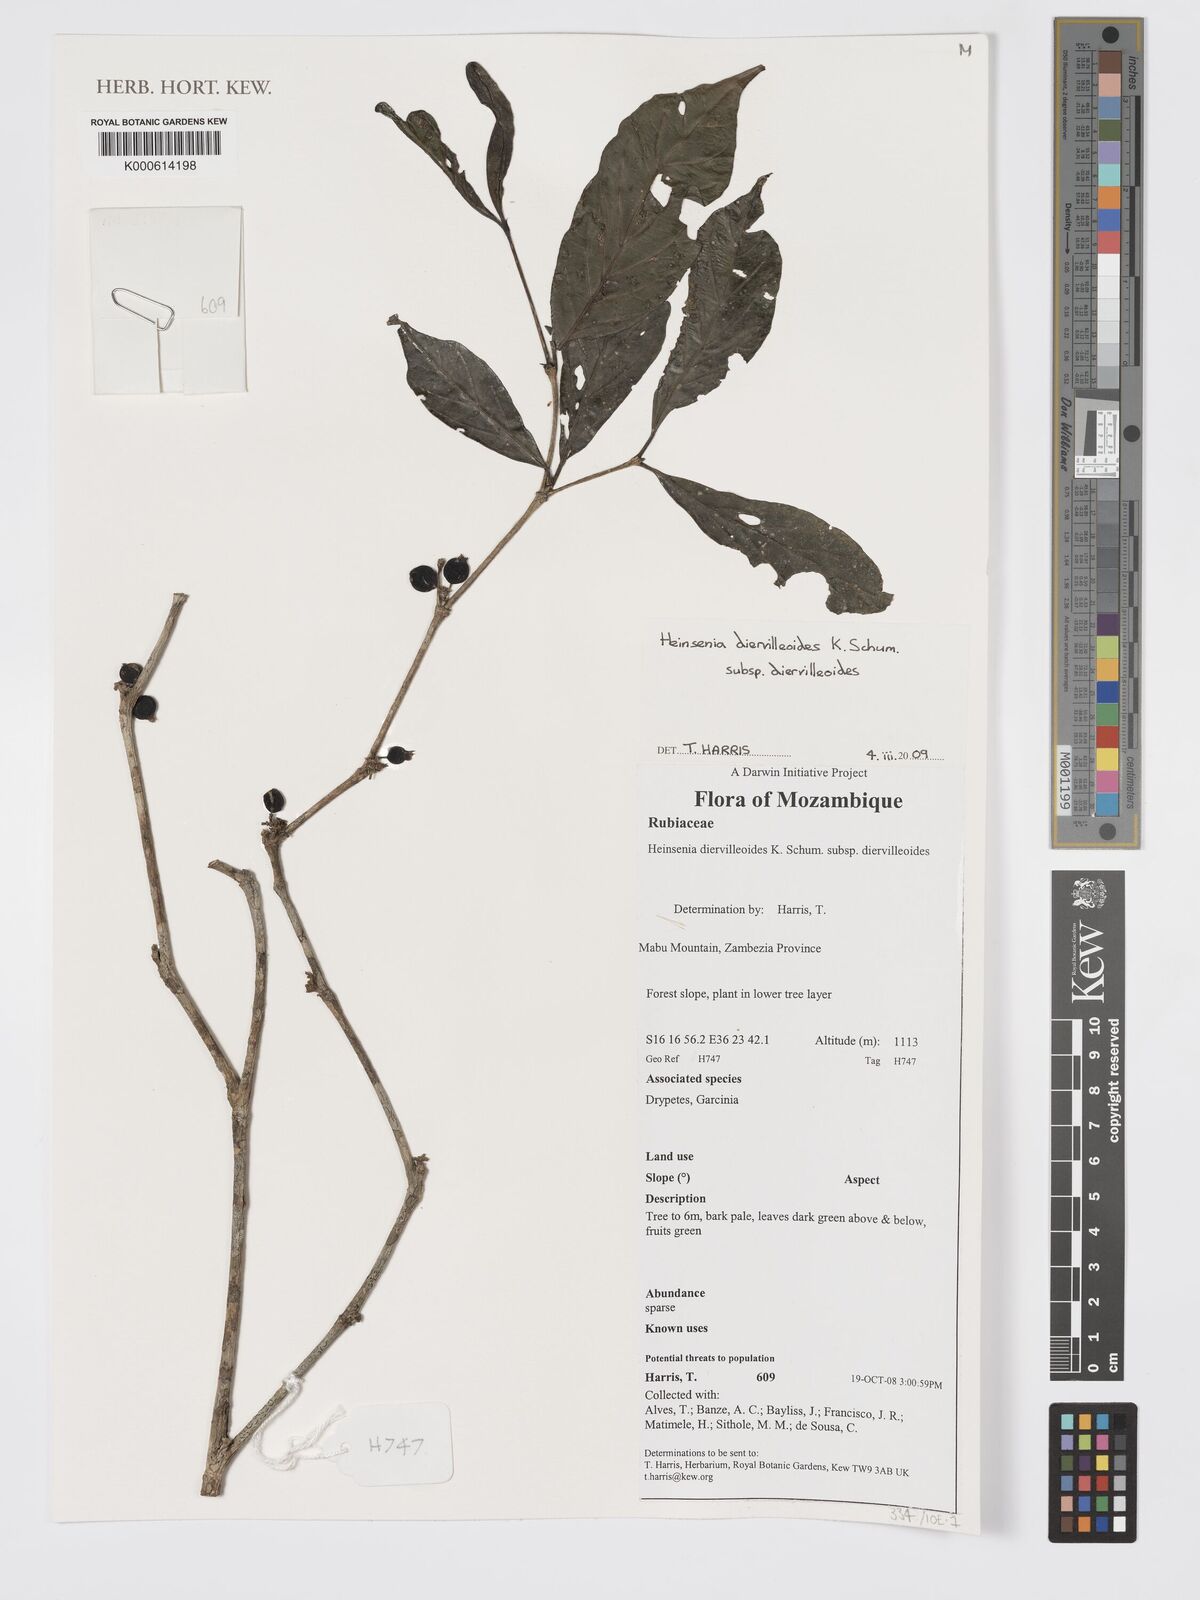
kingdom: Plantae
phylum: Tracheophyta
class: Magnoliopsida
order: Gentianales
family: Rubiaceae
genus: Heinsenia
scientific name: Heinsenia diervilleoides
